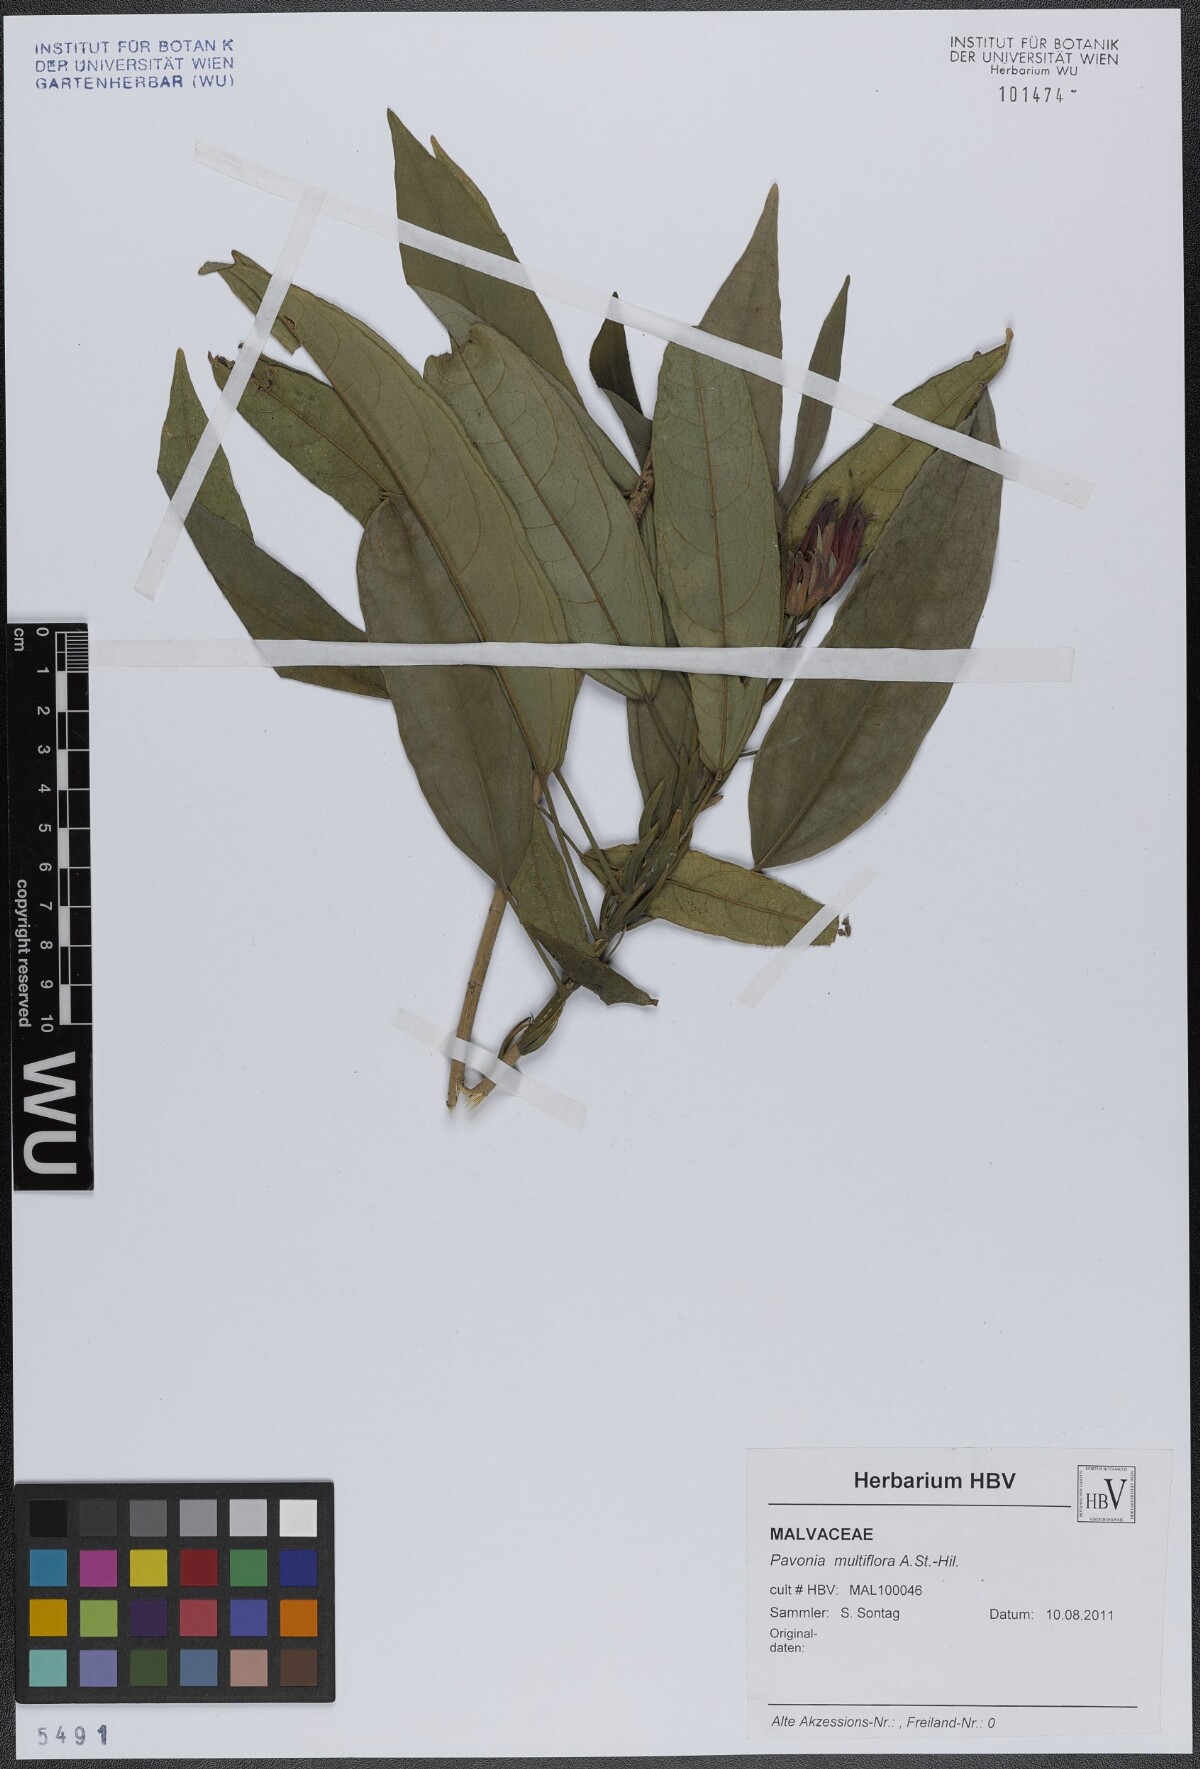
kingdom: Plantae
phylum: Tracheophyta
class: Magnoliopsida
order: Malvales
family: Malvaceae
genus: Pavonia
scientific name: Pavonia multiflora
